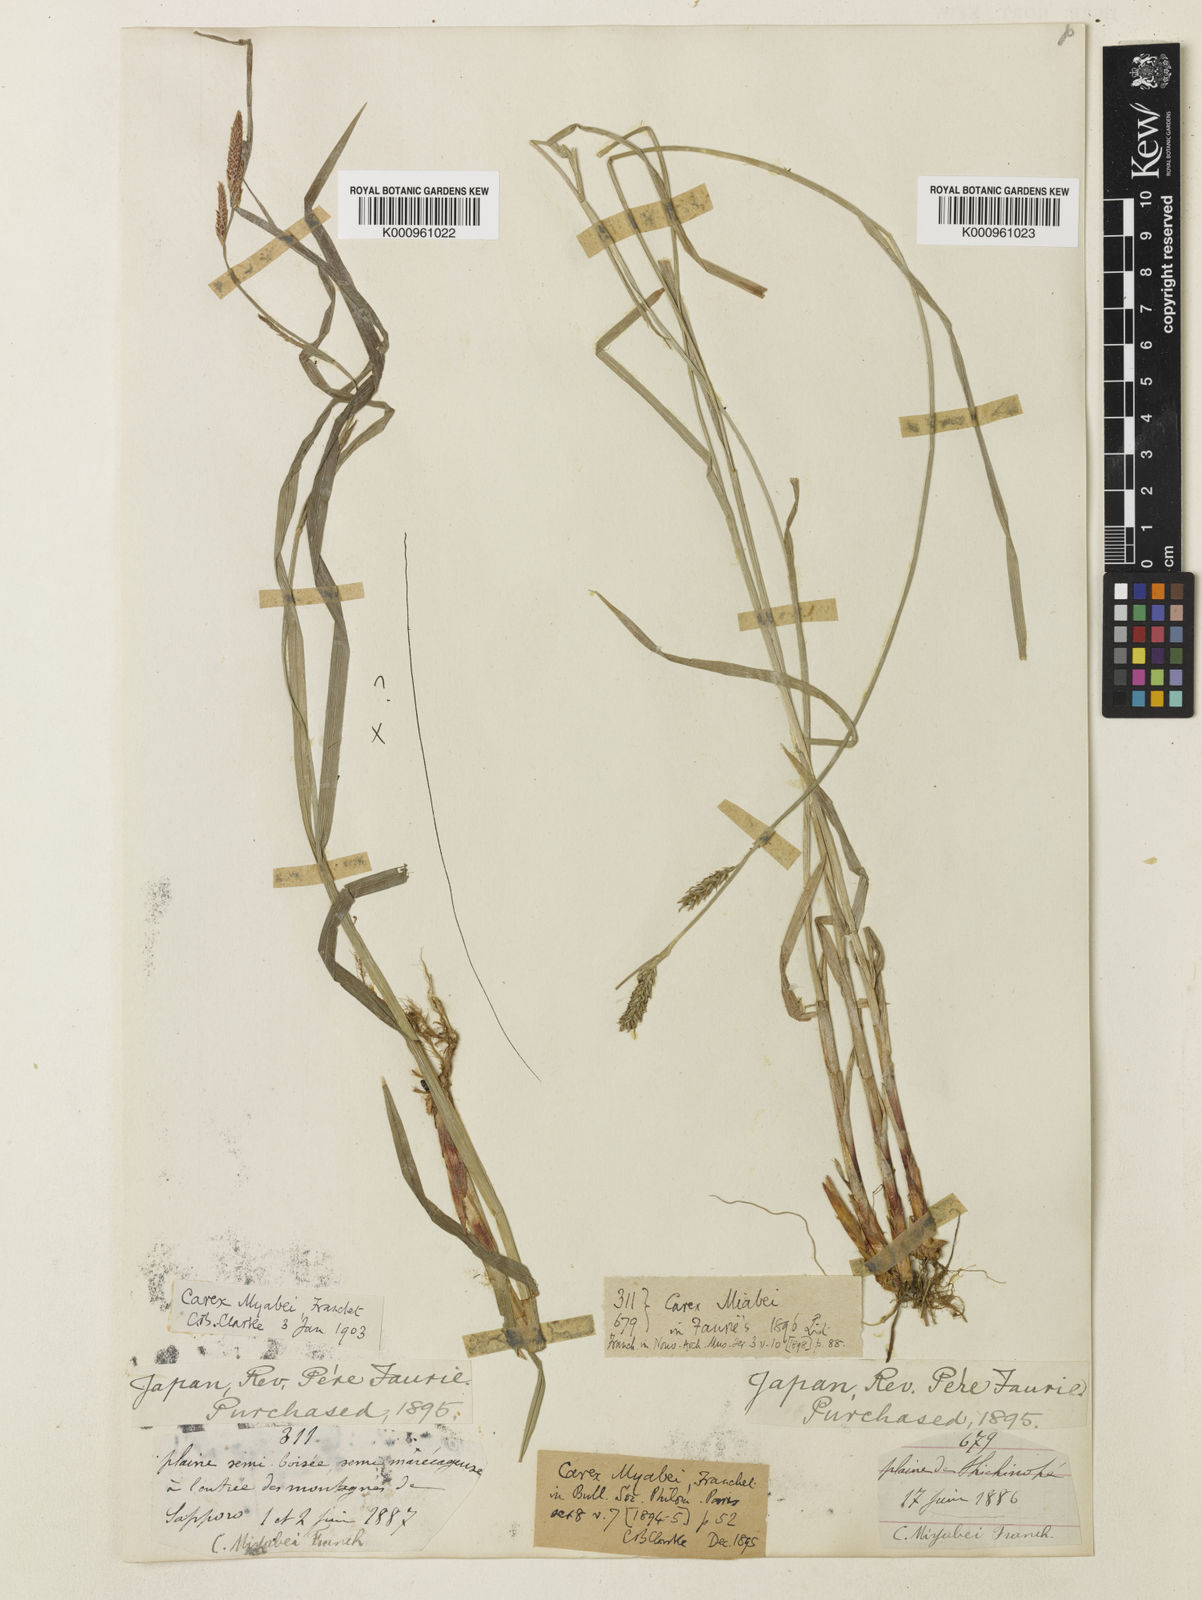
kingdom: Plantae
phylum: Tracheophyta
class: Liliopsida
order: Poales
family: Cyperaceae
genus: Carex
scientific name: Carex wallichiana
